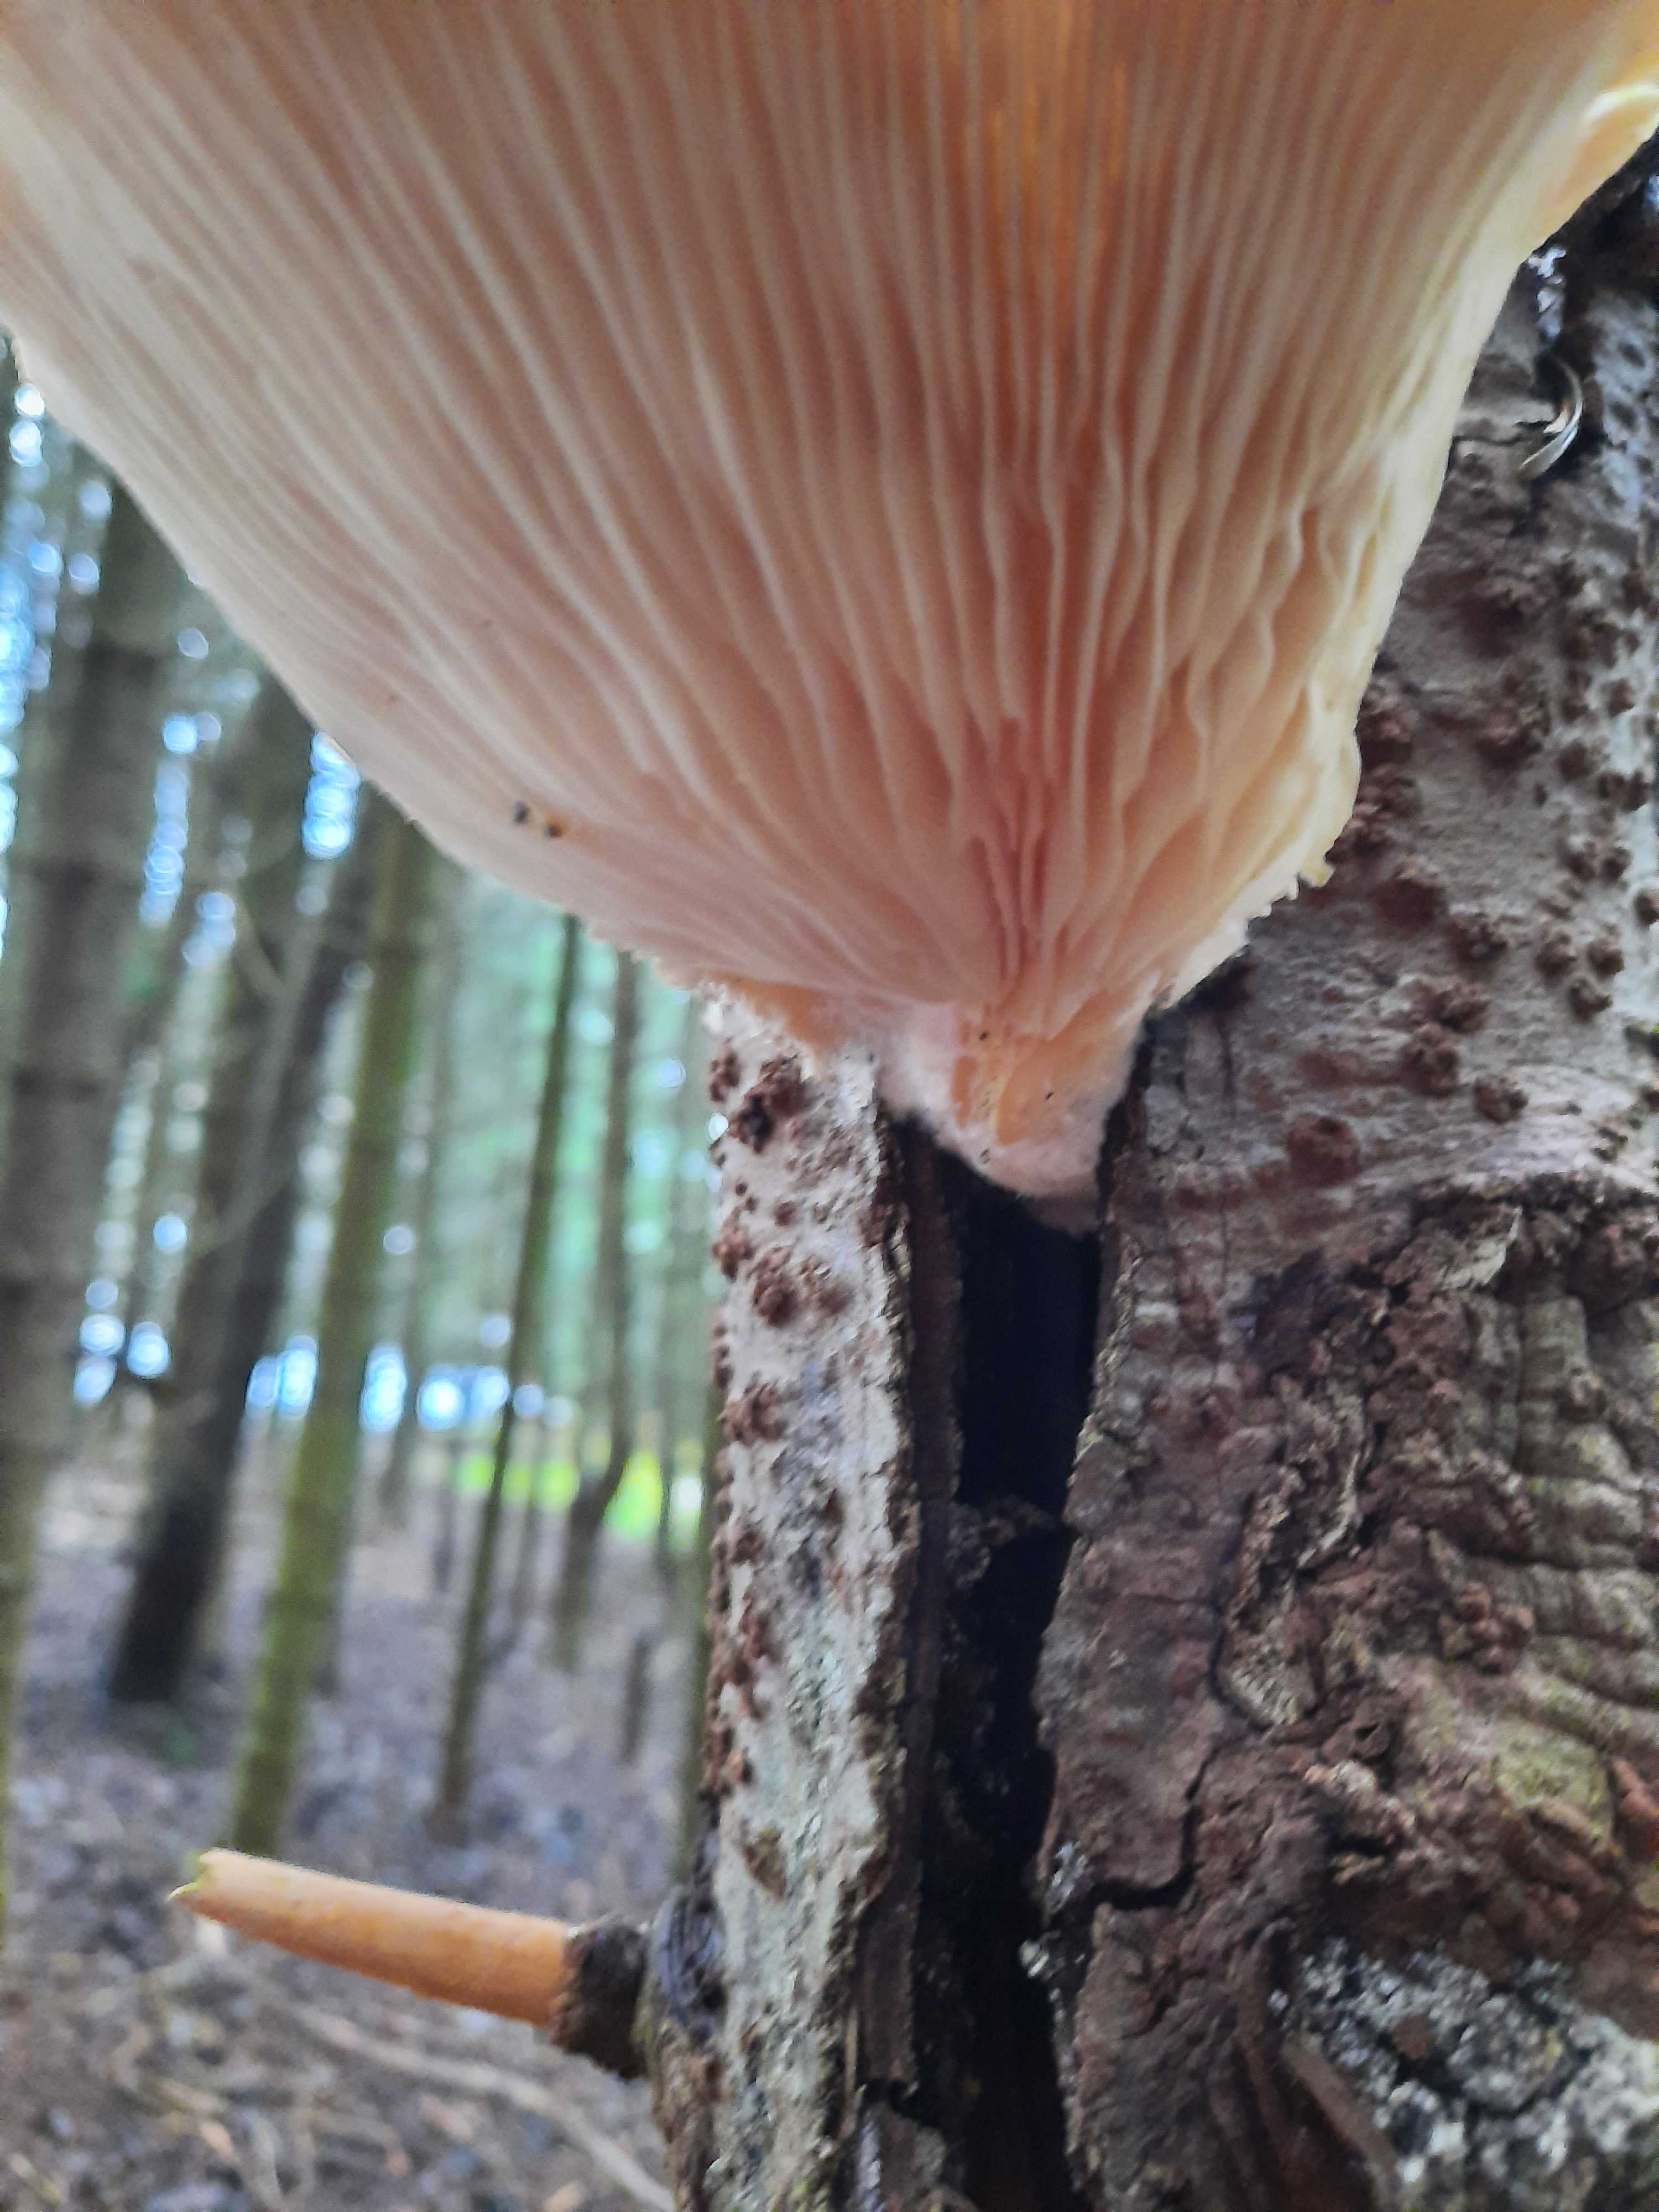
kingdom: Fungi
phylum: Basidiomycota
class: Agaricomycetes
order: Agaricales
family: Pleurotaceae
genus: Pleurotus
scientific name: Pleurotus ostreatus
